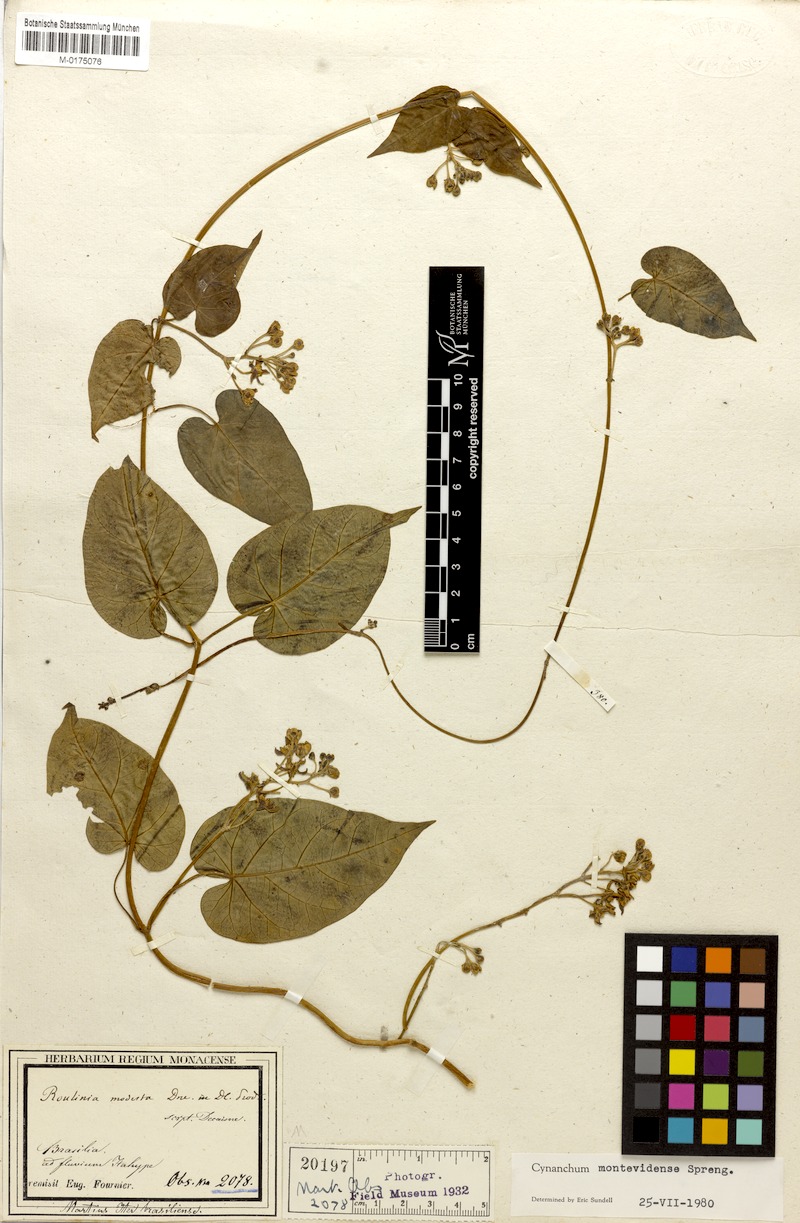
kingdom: Plantae
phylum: Tracheophyta
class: Magnoliopsida
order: Gentianales
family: Apocynaceae
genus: Cynanchum
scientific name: Cynanchum montevidense
